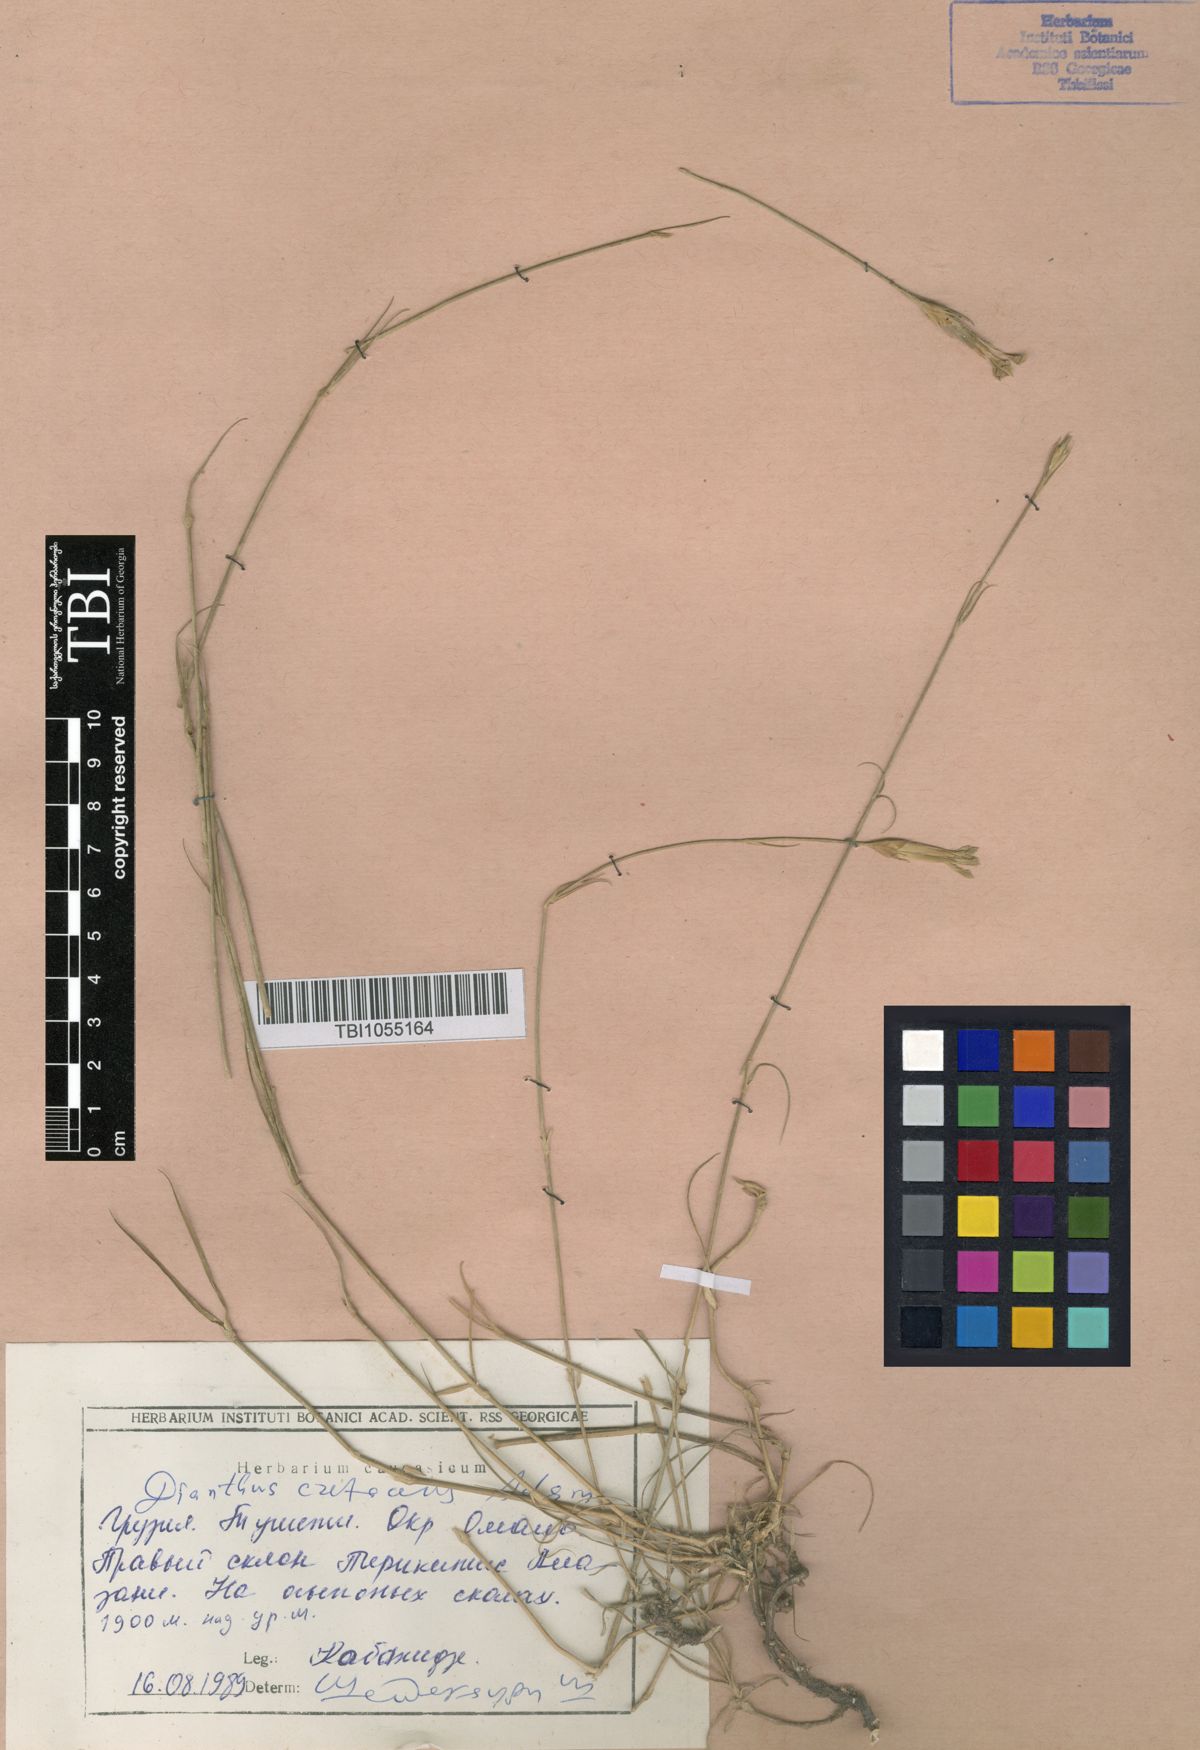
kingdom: Plantae
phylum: Tracheophyta
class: Magnoliopsida
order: Caryophyllales
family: Caryophyllaceae
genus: Dianthus
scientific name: Dianthus cretaceus
